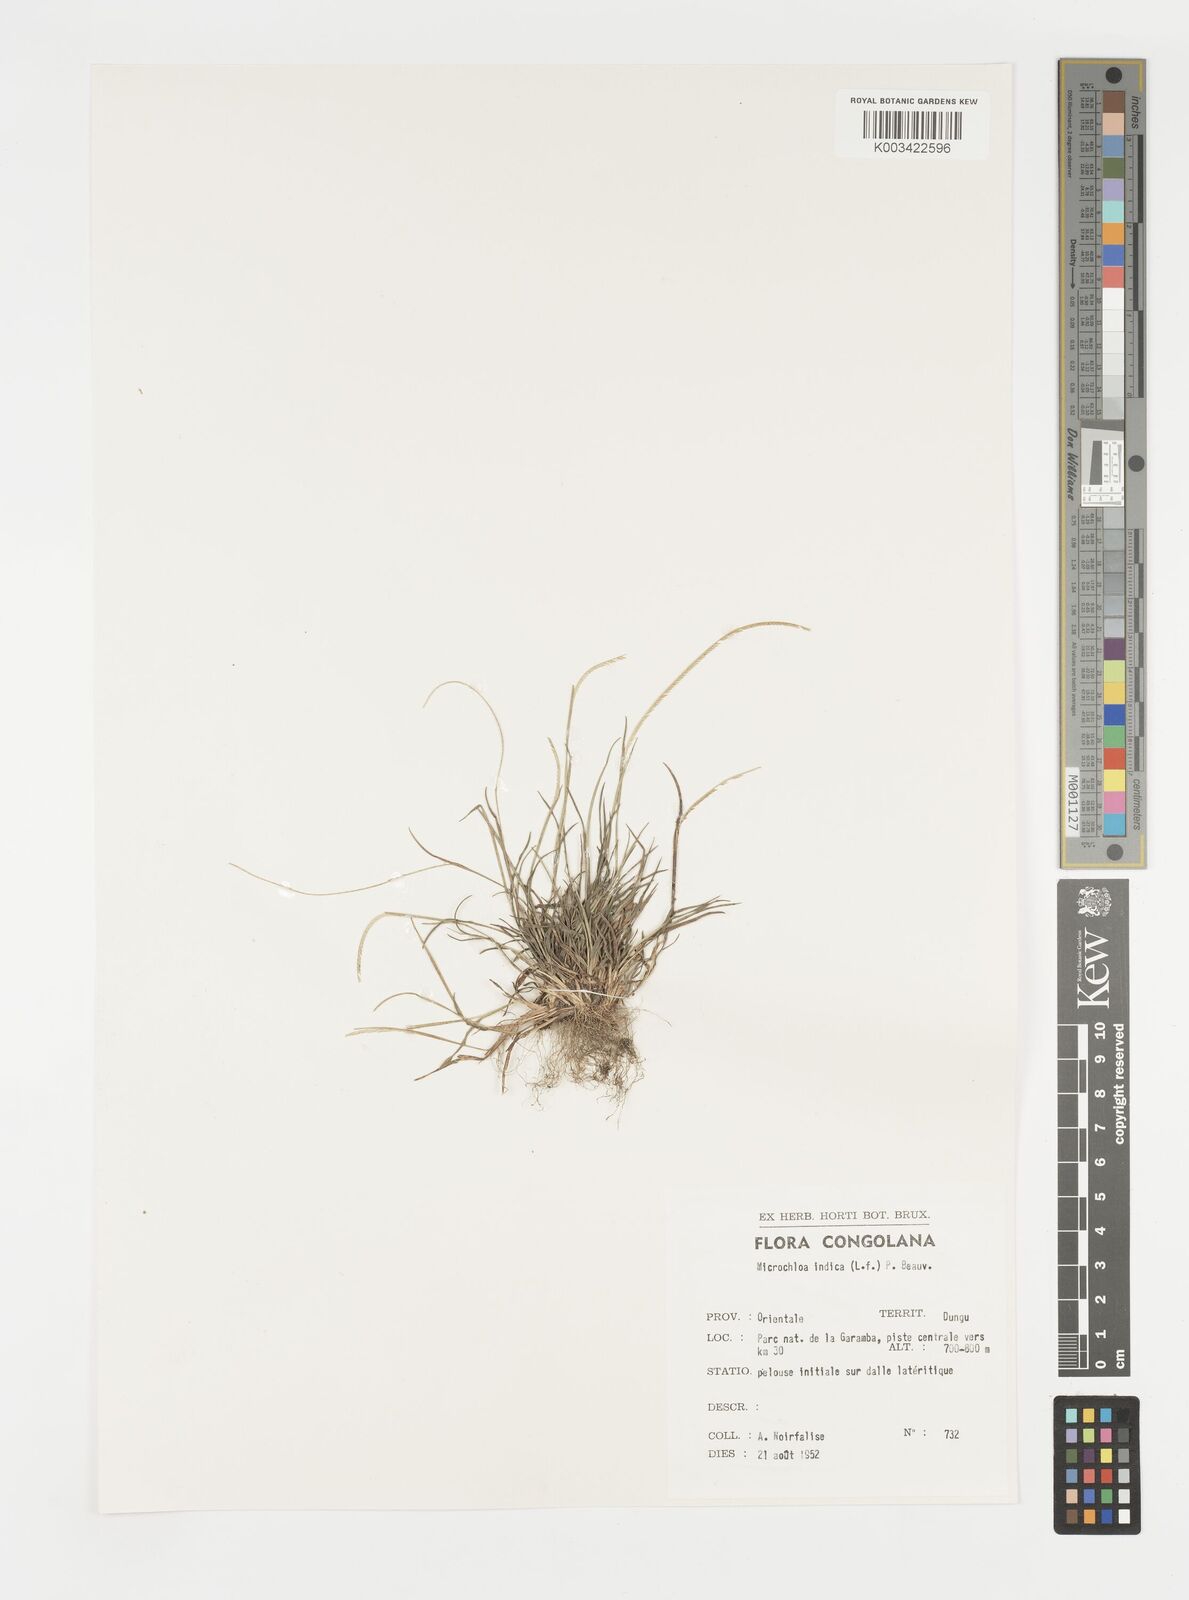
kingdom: Plantae
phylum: Tracheophyta
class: Liliopsida
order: Poales
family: Poaceae
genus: Microchloa
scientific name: Microchloa indica
